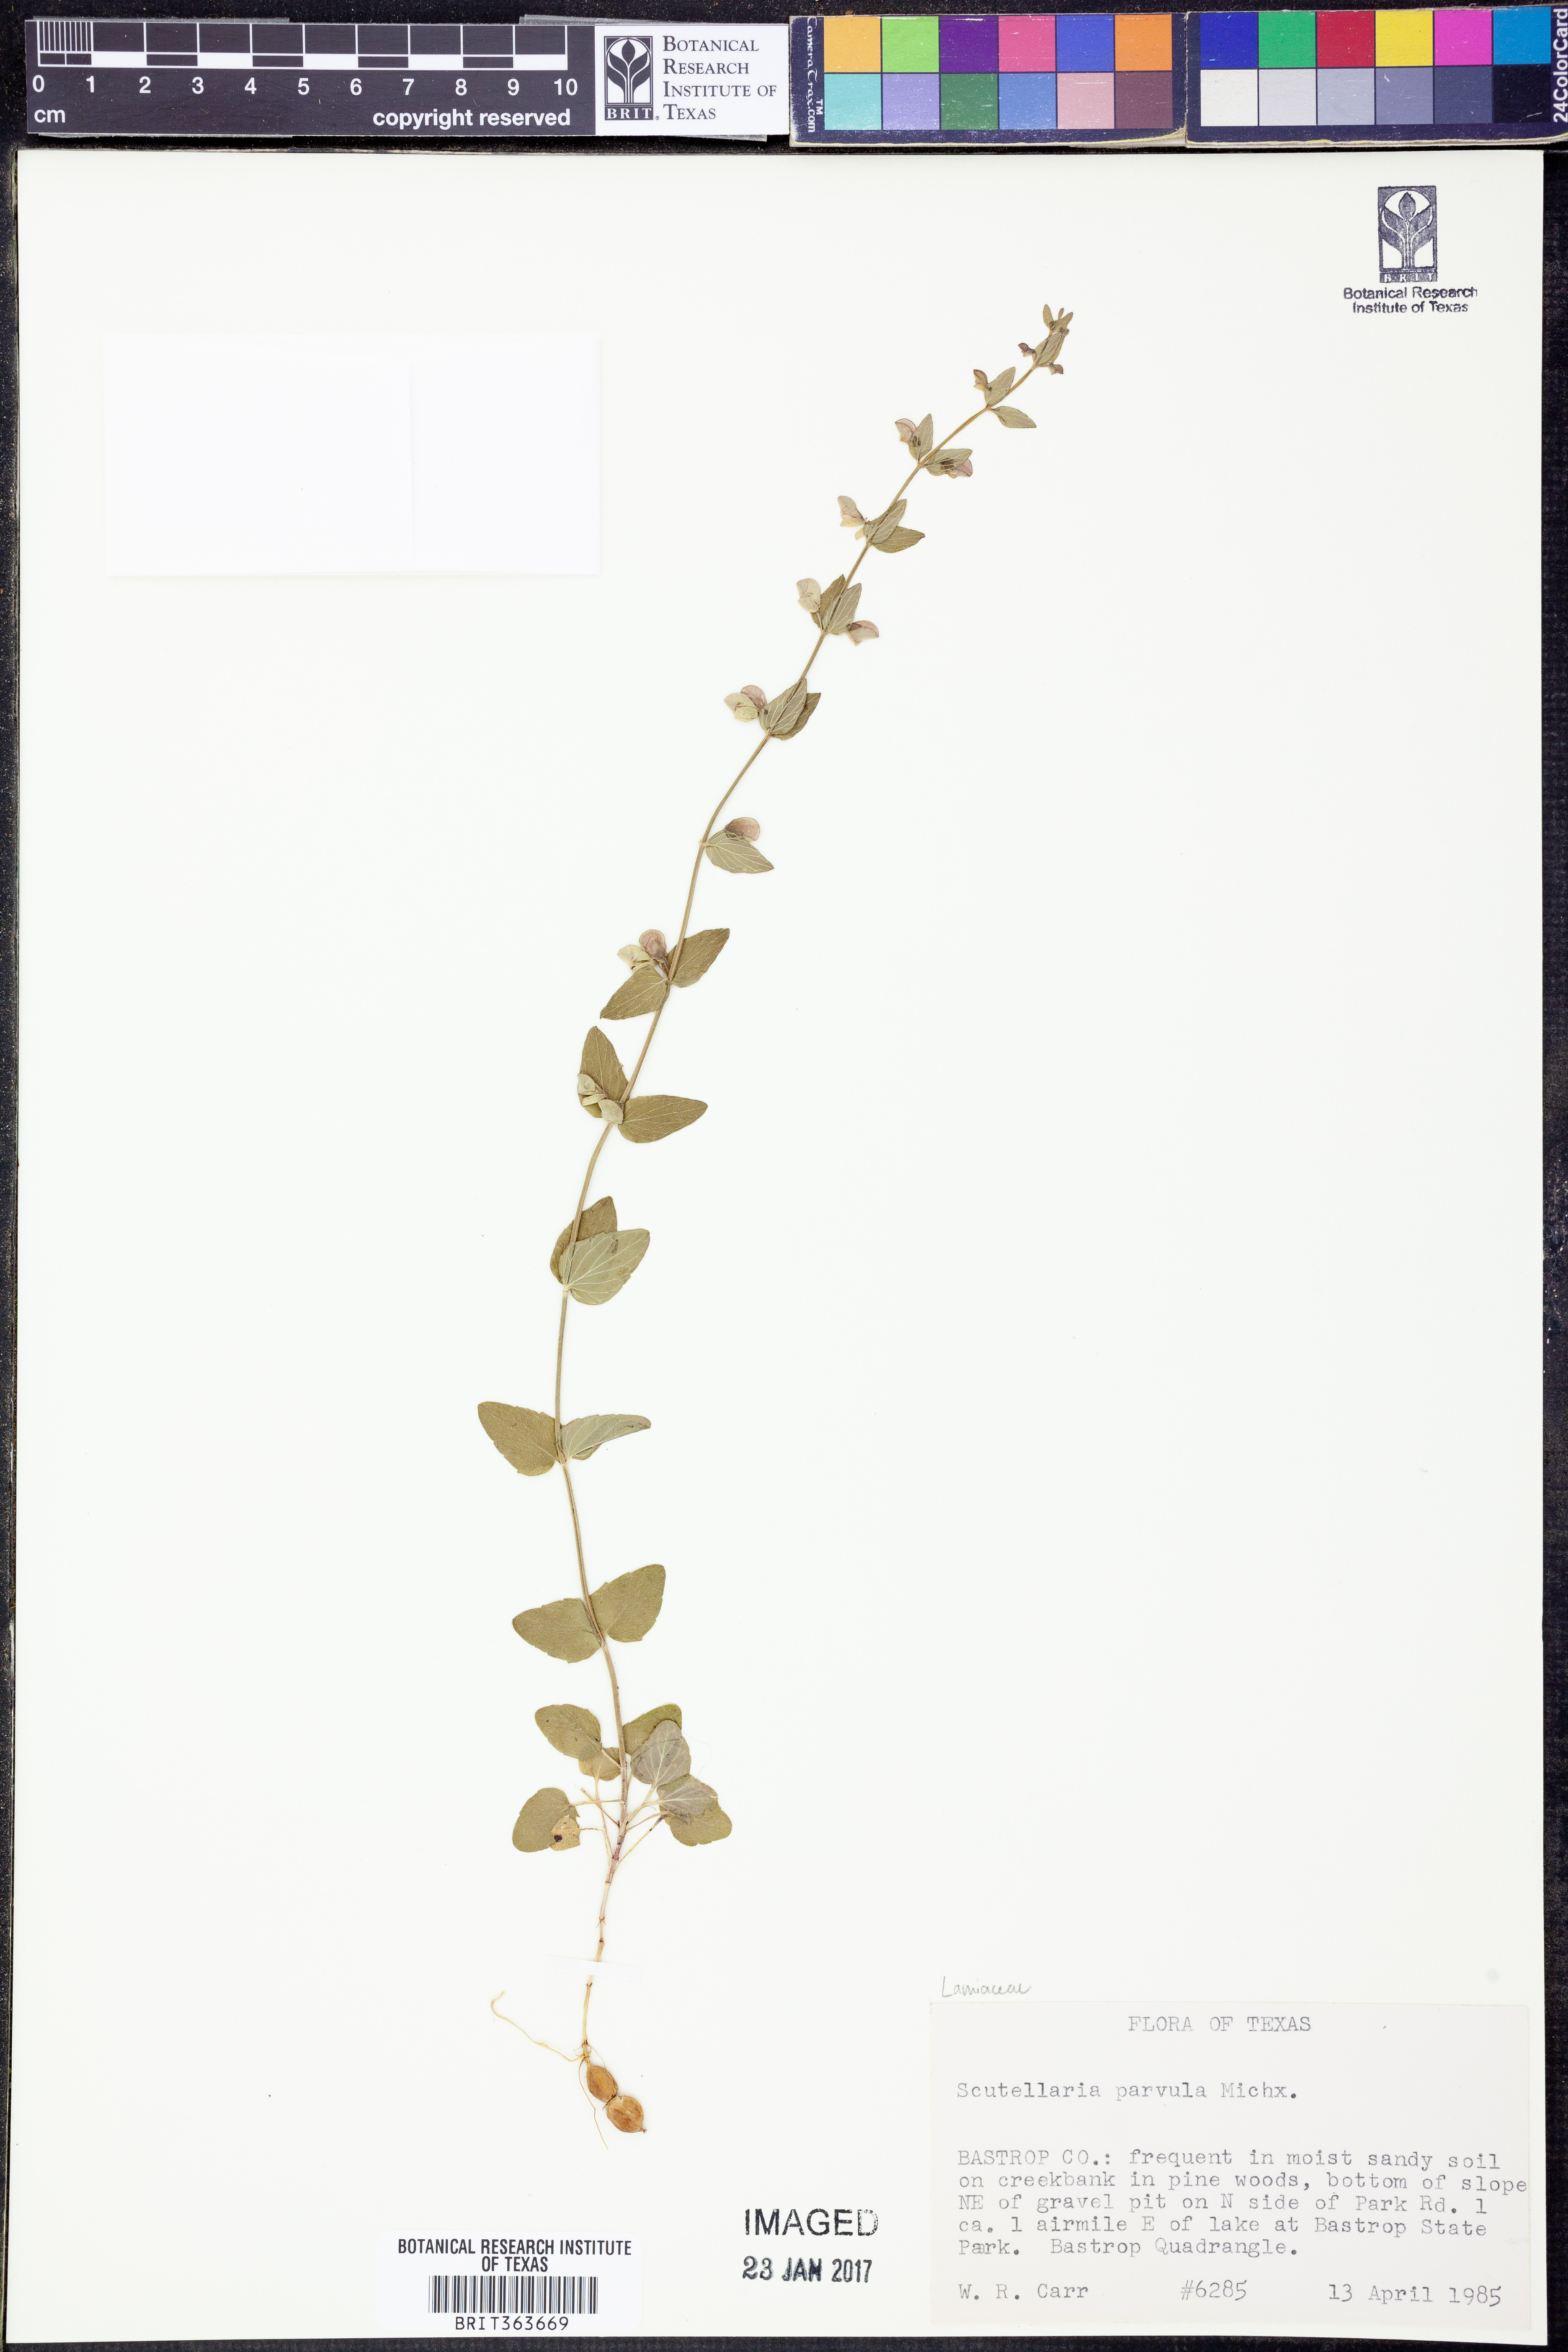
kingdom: Plantae
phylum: Tracheophyta
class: Magnoliopsida
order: Lamiales
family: Lamiaceae
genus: Scutellaria
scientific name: Scutellaria parvula
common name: Little scullcap
